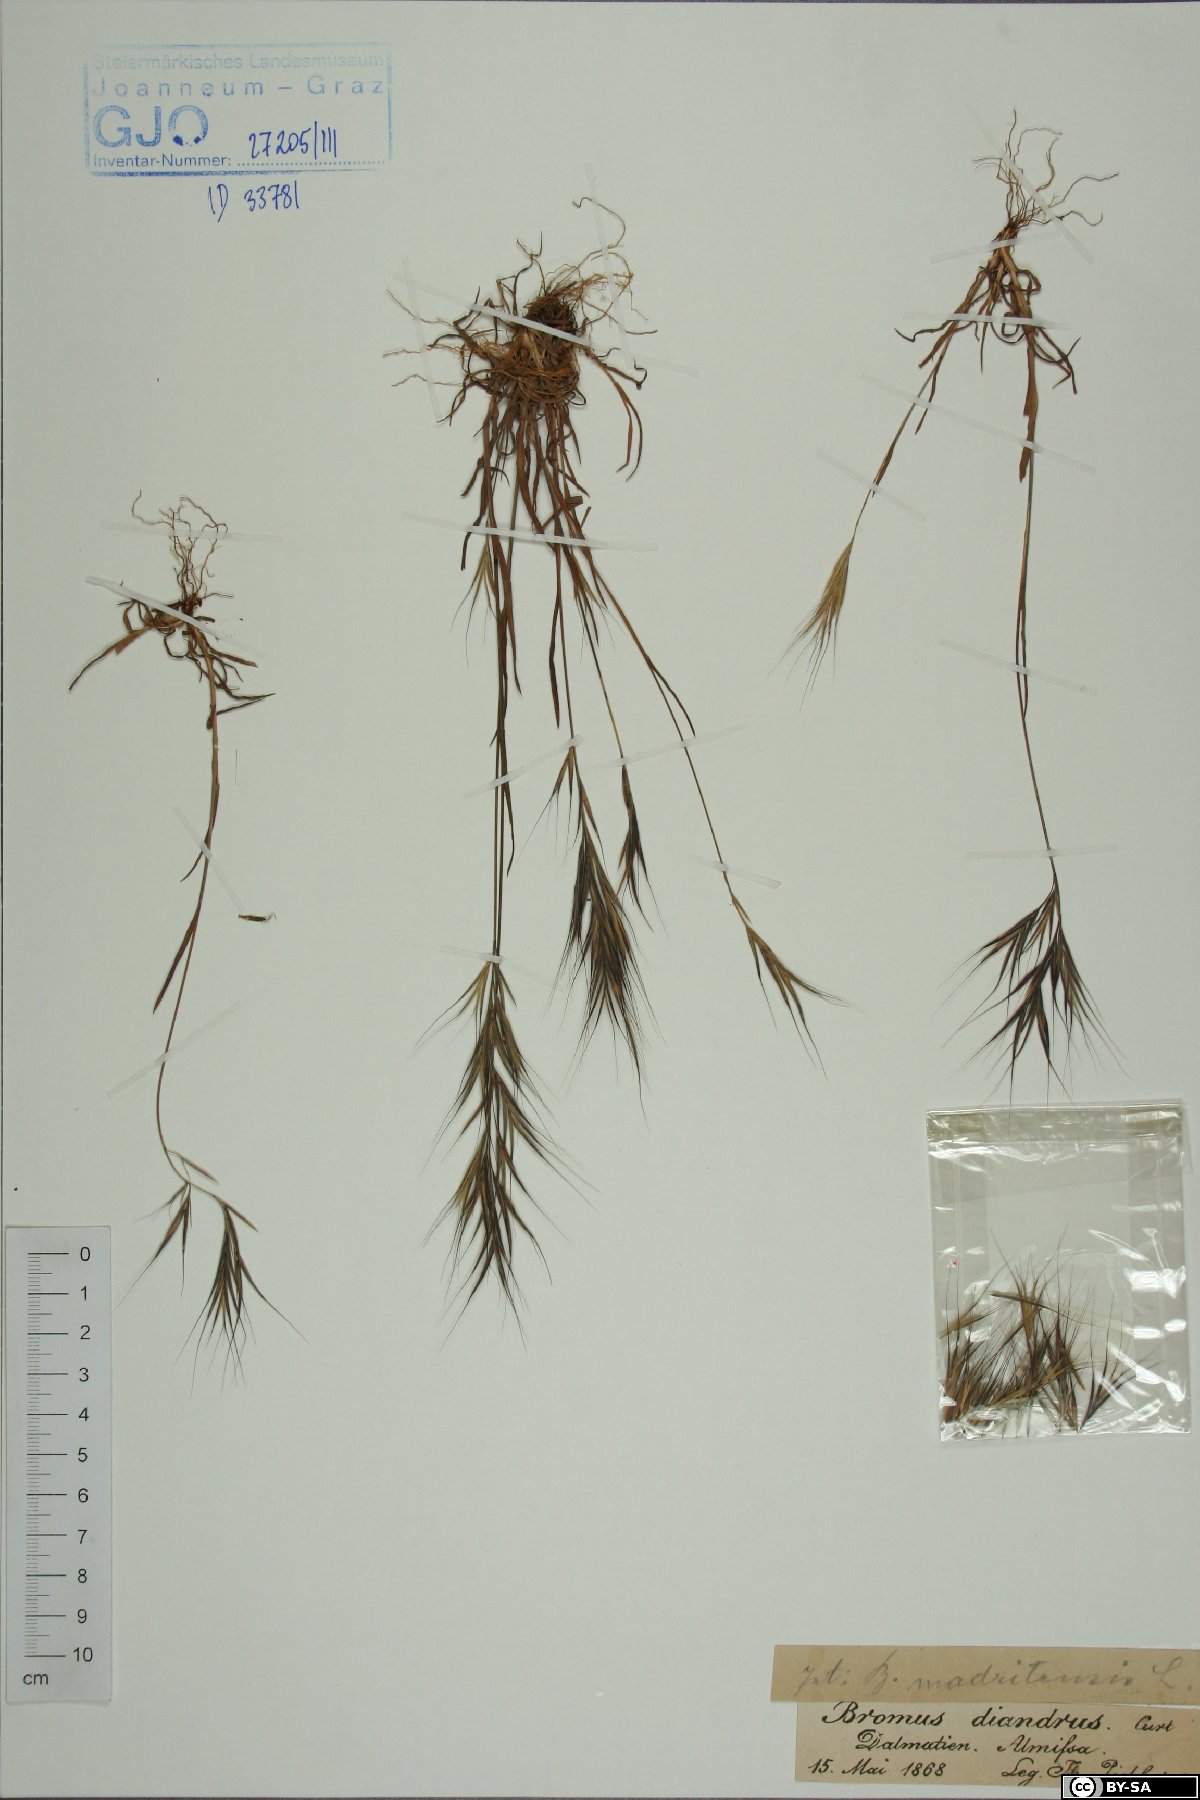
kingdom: Plantae
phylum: Tracheophyta
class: Liliopsida
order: Poales
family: Poaceae
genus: Bromus
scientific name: Bromus madritensis
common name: Compact brome
